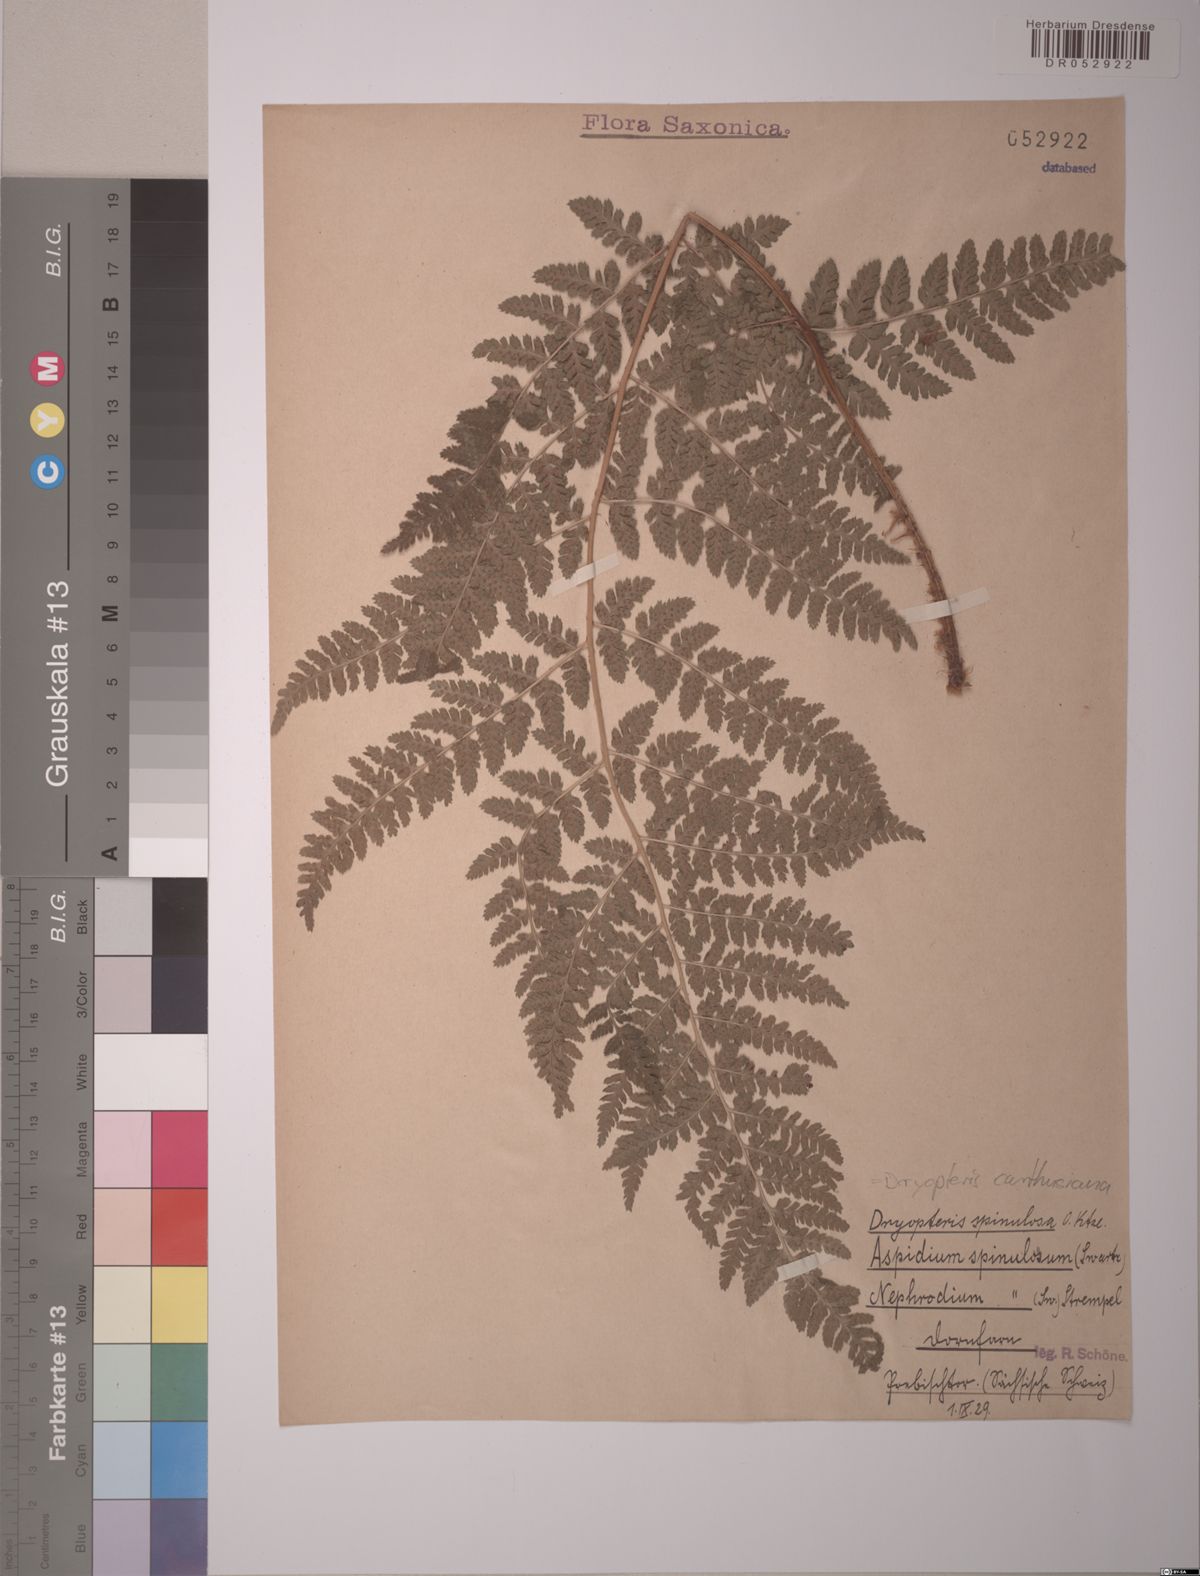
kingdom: Plantae
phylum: Tracheophyta
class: Polypodiopsida
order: Polypodiales
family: Dryopteridaceae
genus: Dryopteris
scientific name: Dryopteris carthusiana
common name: Narrow buckler-fern
